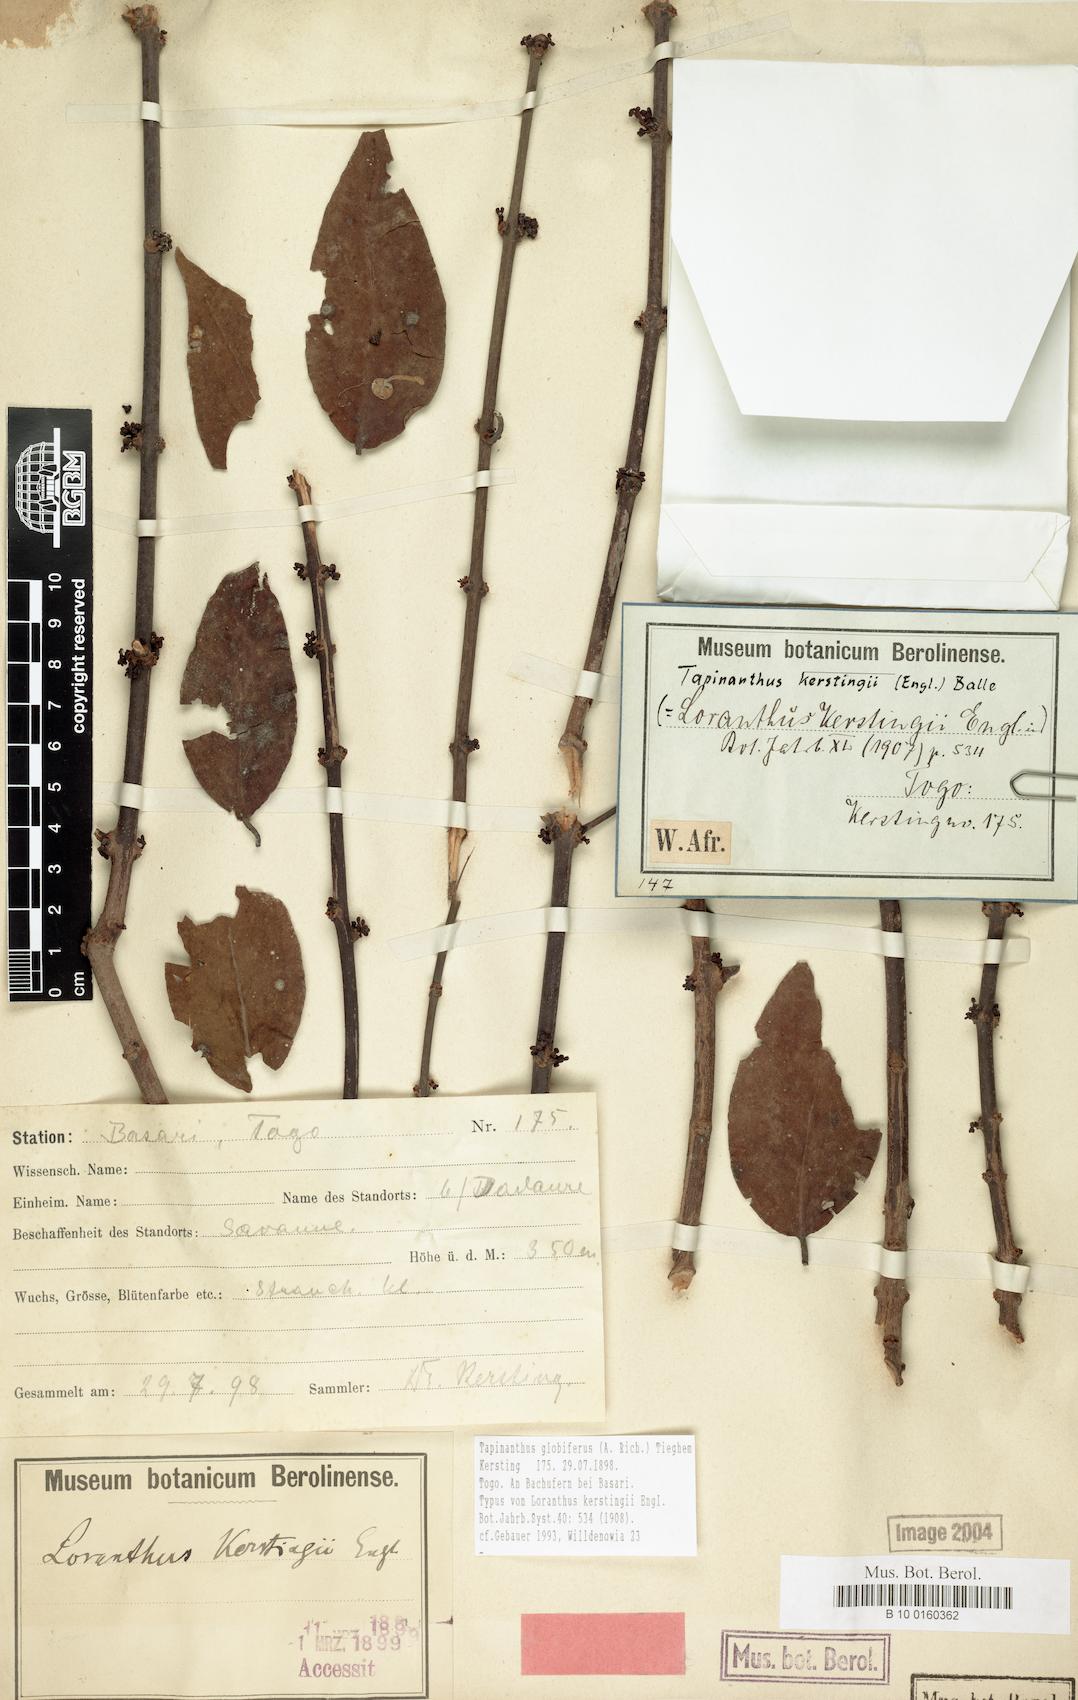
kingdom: Plantae
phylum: Tracheophyta
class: Magnoliopsida
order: Santalales
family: Loranthaceae
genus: Tapinanthus
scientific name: Tapinanthus globiferus
